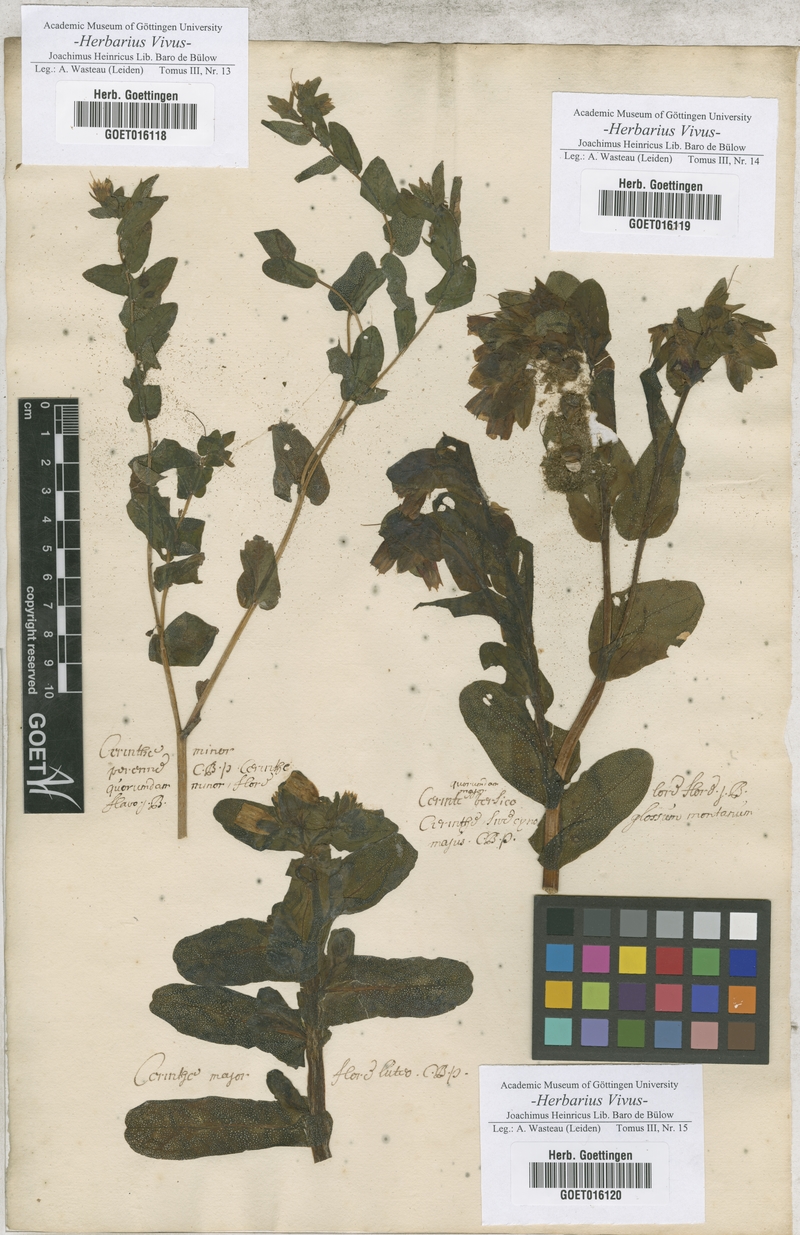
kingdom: Plantae
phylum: Tracheophyta
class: Magnoliopsida
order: Boraginales
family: Boraginaceae
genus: Cerinthe
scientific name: Cerinthe minor
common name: Lesser honeywort
